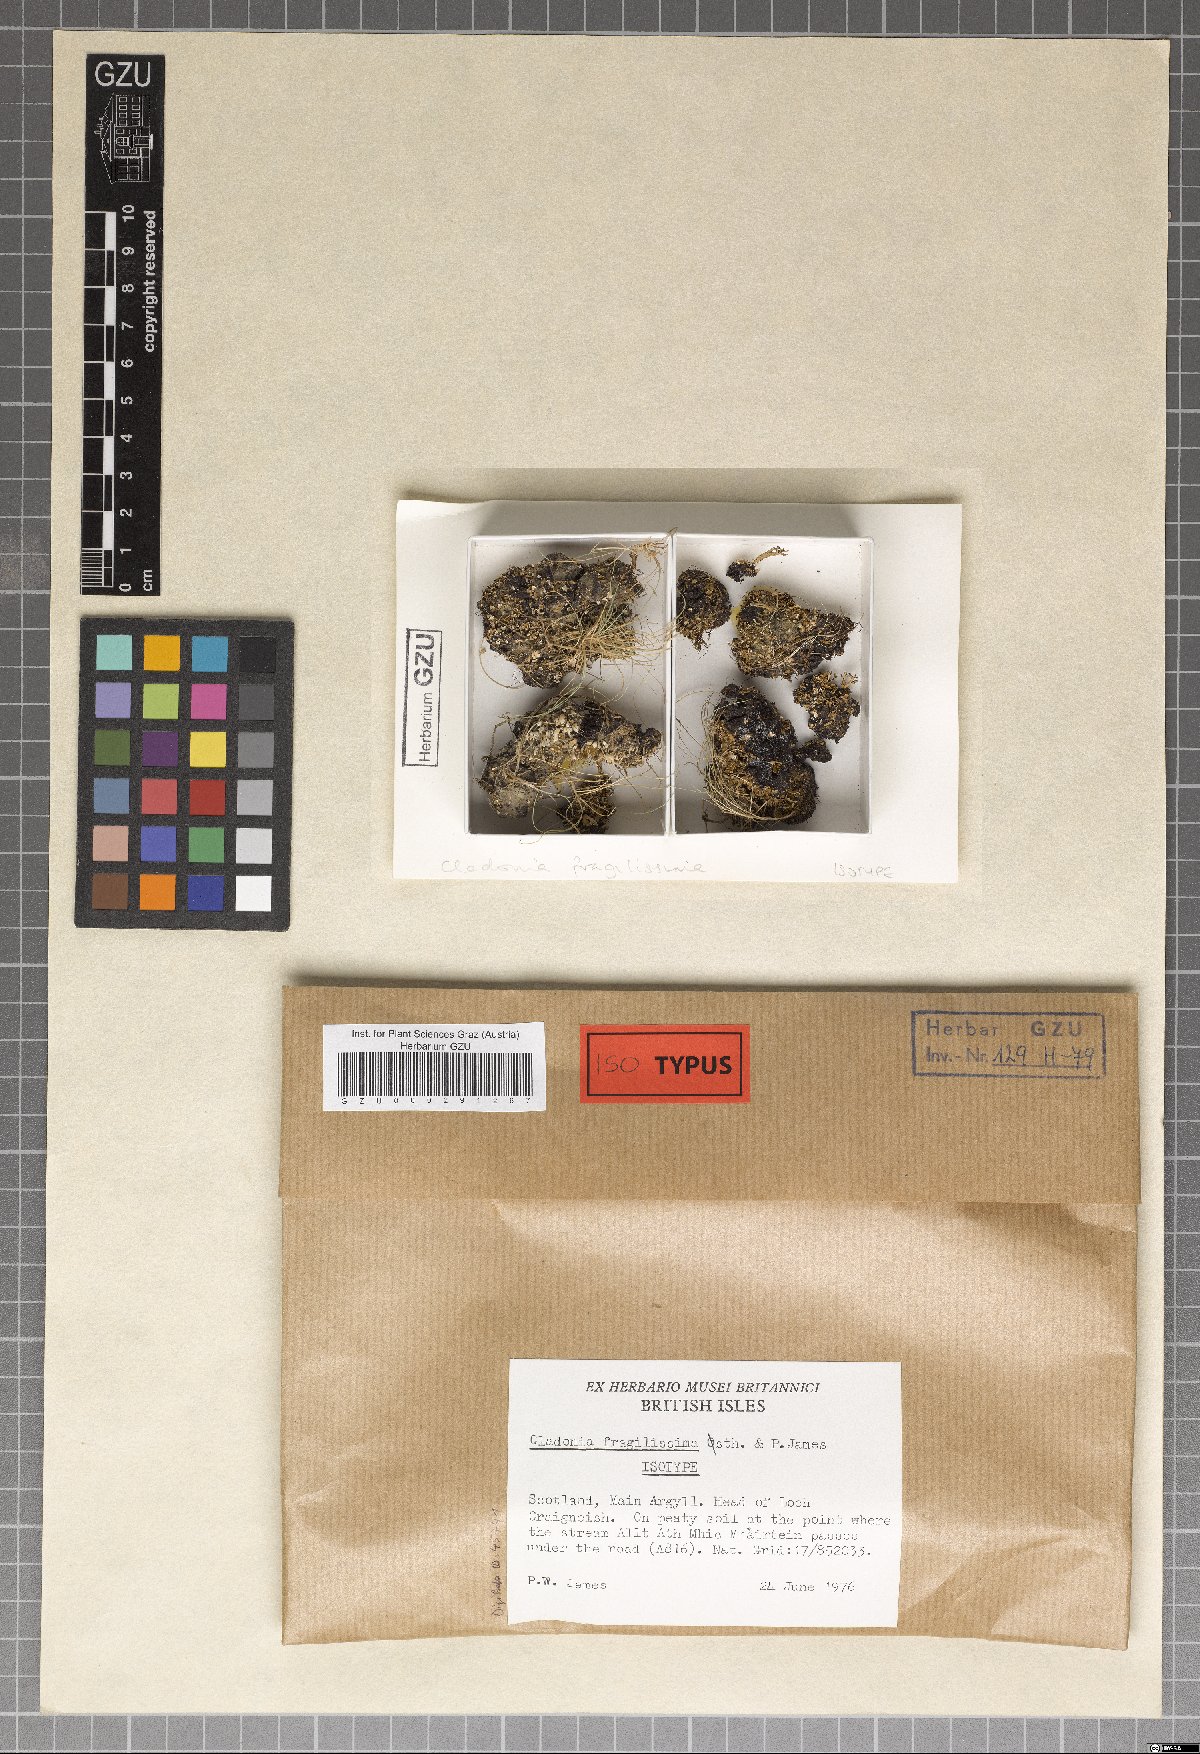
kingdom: Plantae
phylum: Marchantiophyta
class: Marchantiopsida
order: Marchantiales
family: Monocleaceae
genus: Monoclea
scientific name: Monoclea
